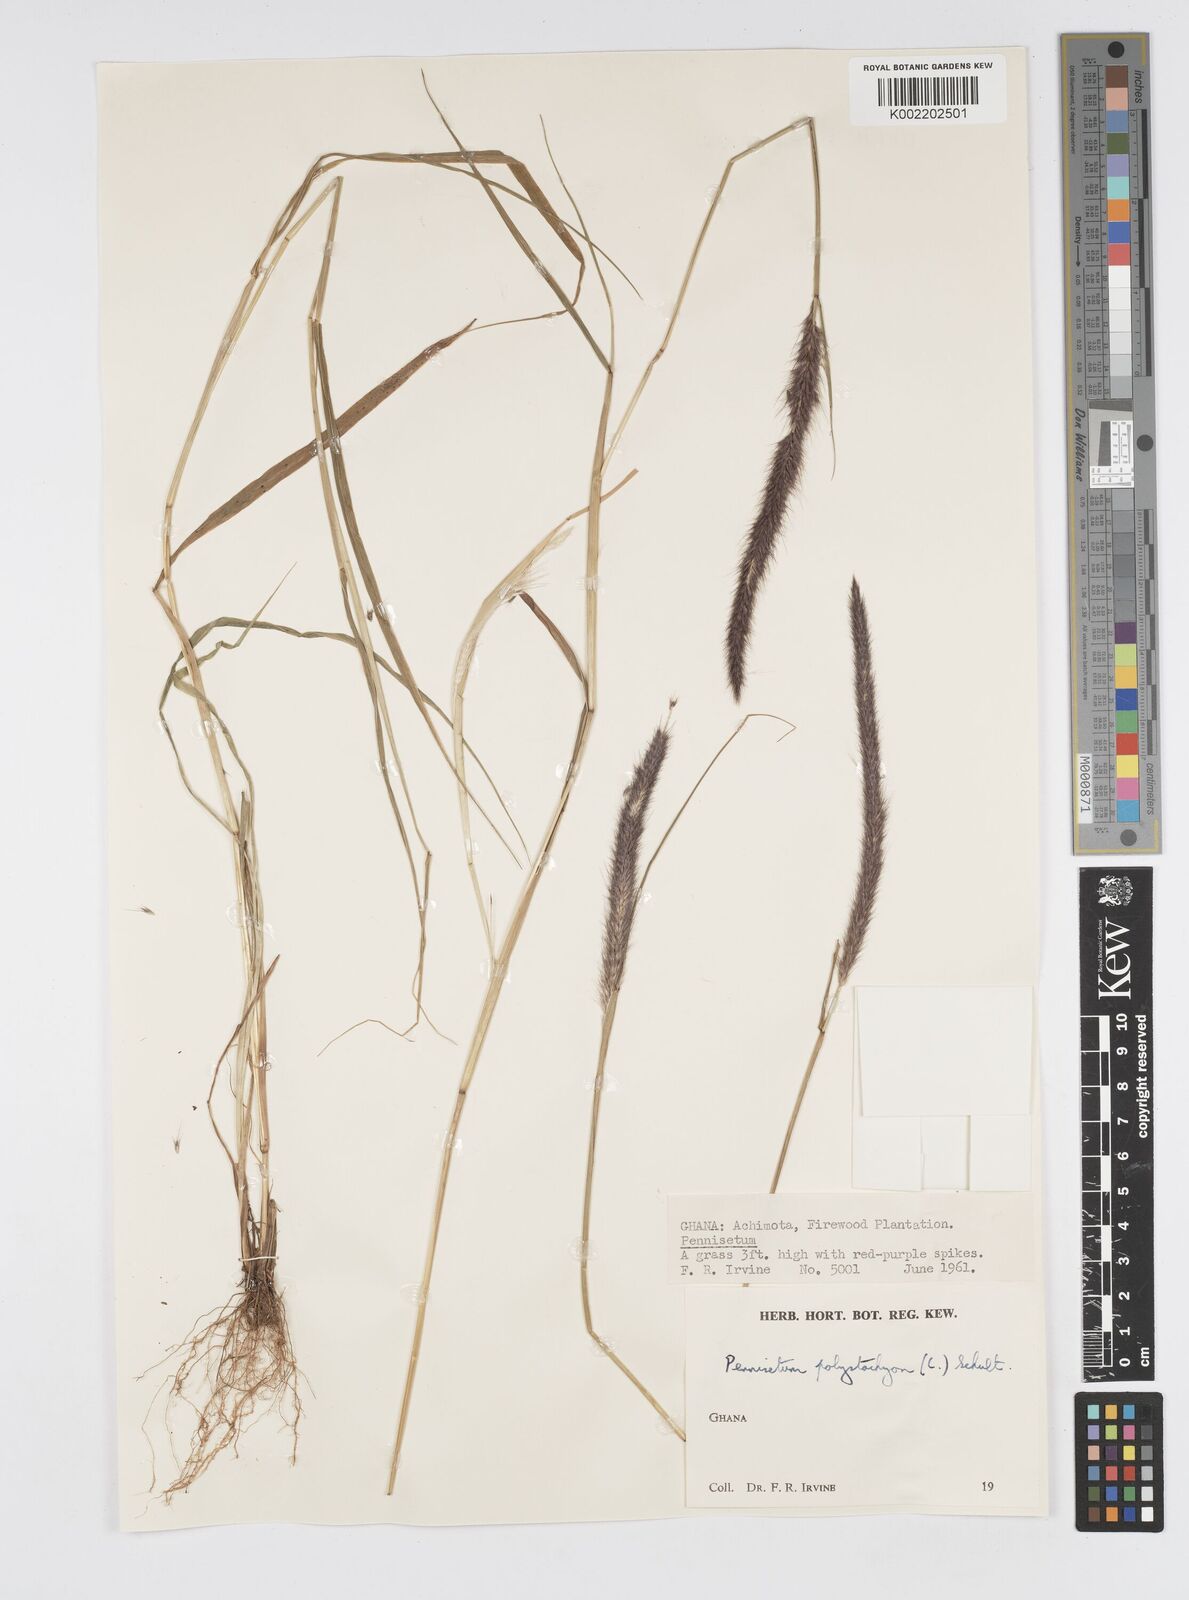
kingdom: Plantae
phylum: Tracheophyta
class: Liliopsida
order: Poales
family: Poaceae
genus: Setaria
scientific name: Setaria parviflora
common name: Knotroot bristle-grass
